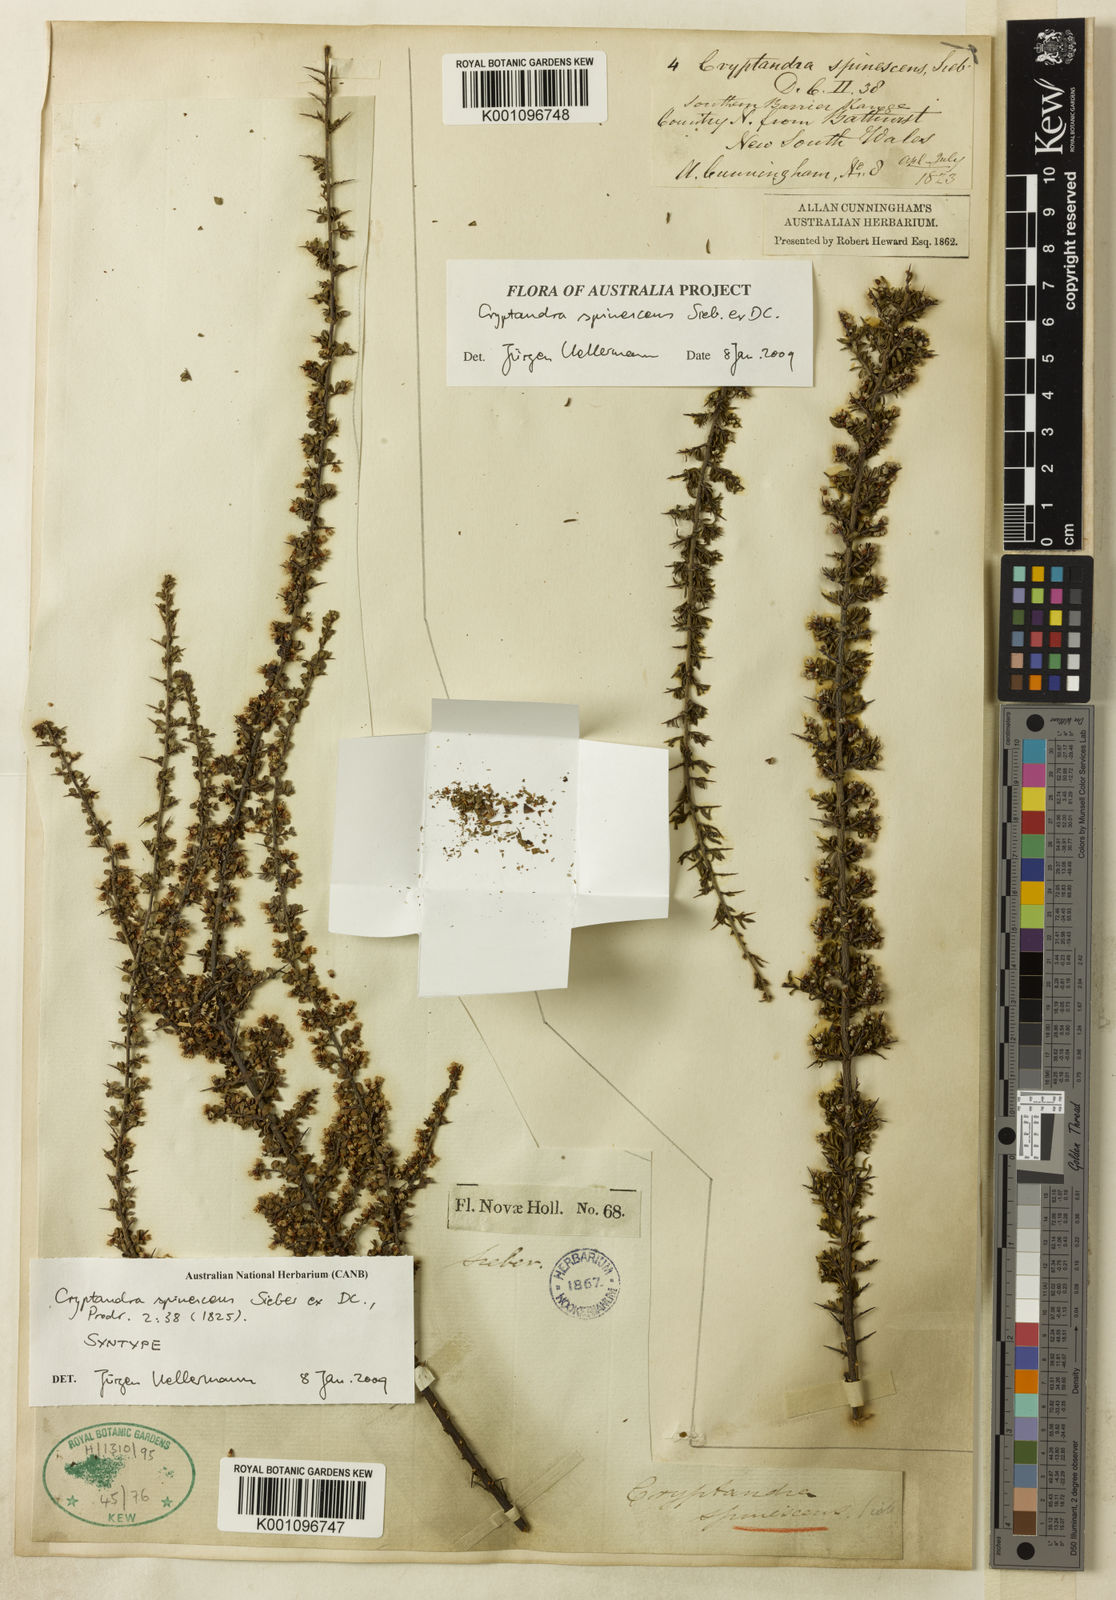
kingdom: Plantae
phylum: Tracheophyta
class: Magnoliopsida
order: Rosales
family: Rhamnaceae
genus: Cryptandra
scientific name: Cryptandra spinescens
